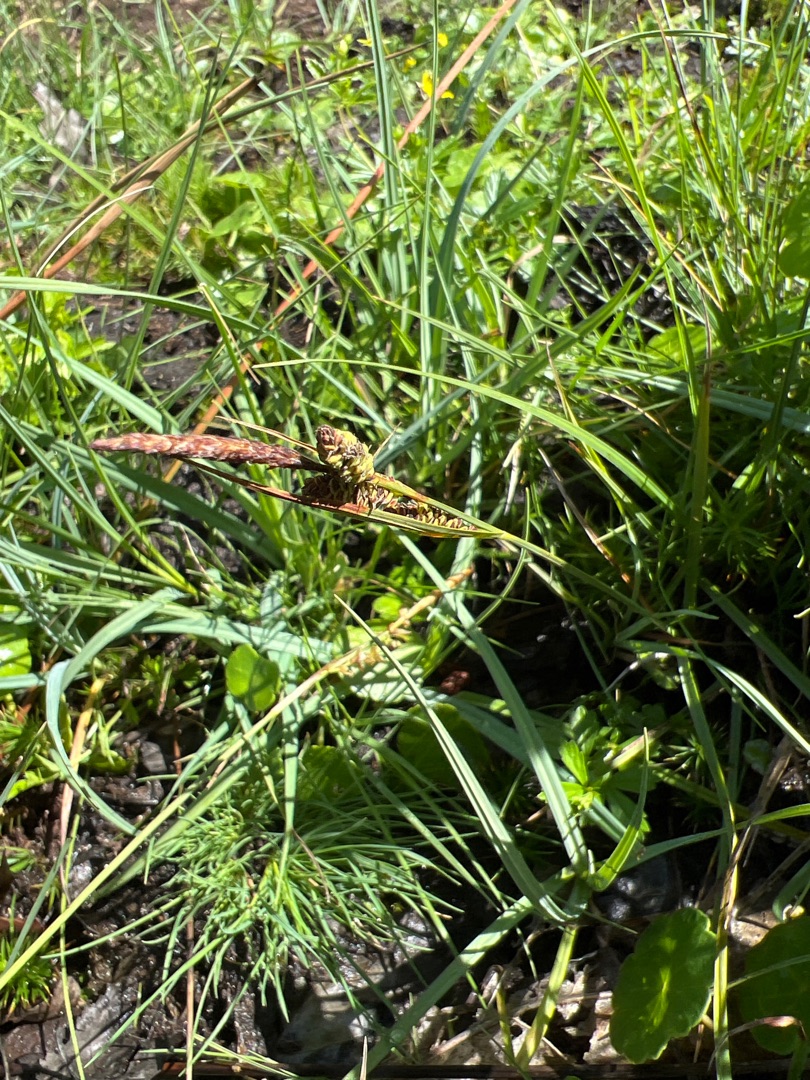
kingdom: Plantae
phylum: Tracheophyta
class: Liliopsida
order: Poales
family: Cyperaceae
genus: Carex
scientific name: Carex nigra
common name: Almindelig star (varietet)
